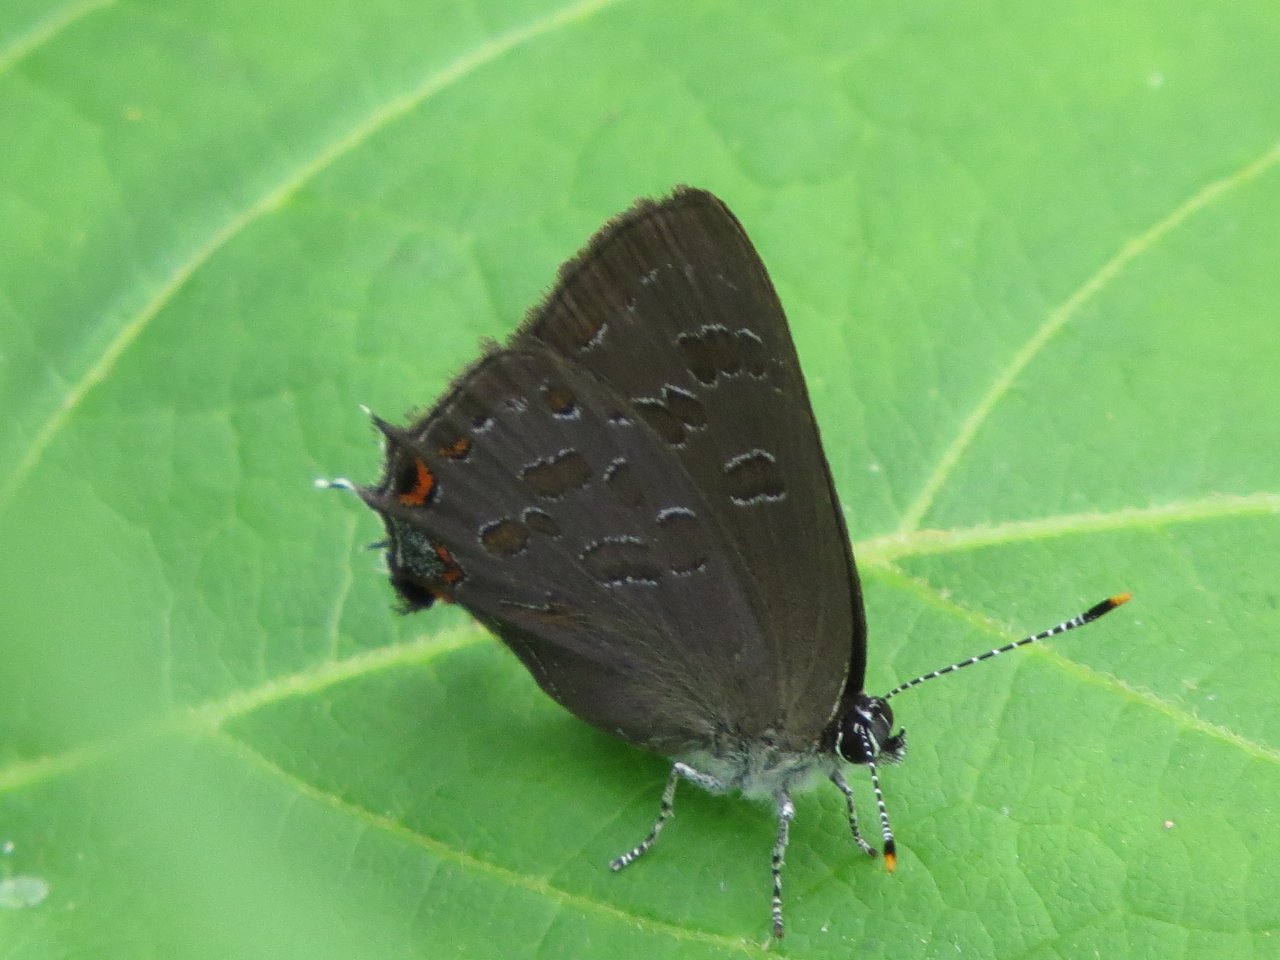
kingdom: Animalia
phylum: Arthropoda
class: Insecta
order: Lepidoptera
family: Lycaenidae
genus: Satyrium
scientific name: Satyrium liparops
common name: Striped Hairstreak
